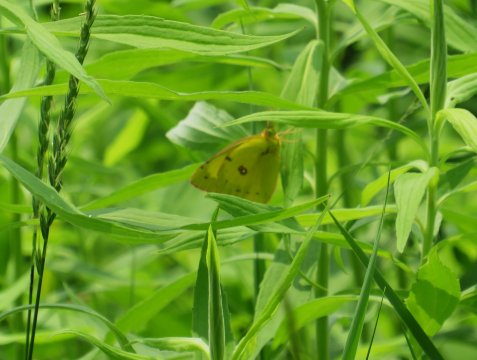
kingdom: Animalia
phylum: Arthropoda
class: Insecta
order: Lepidoptera
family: Pieridae
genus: Colias
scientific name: Colias philodice
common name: Clouded Sulphur
